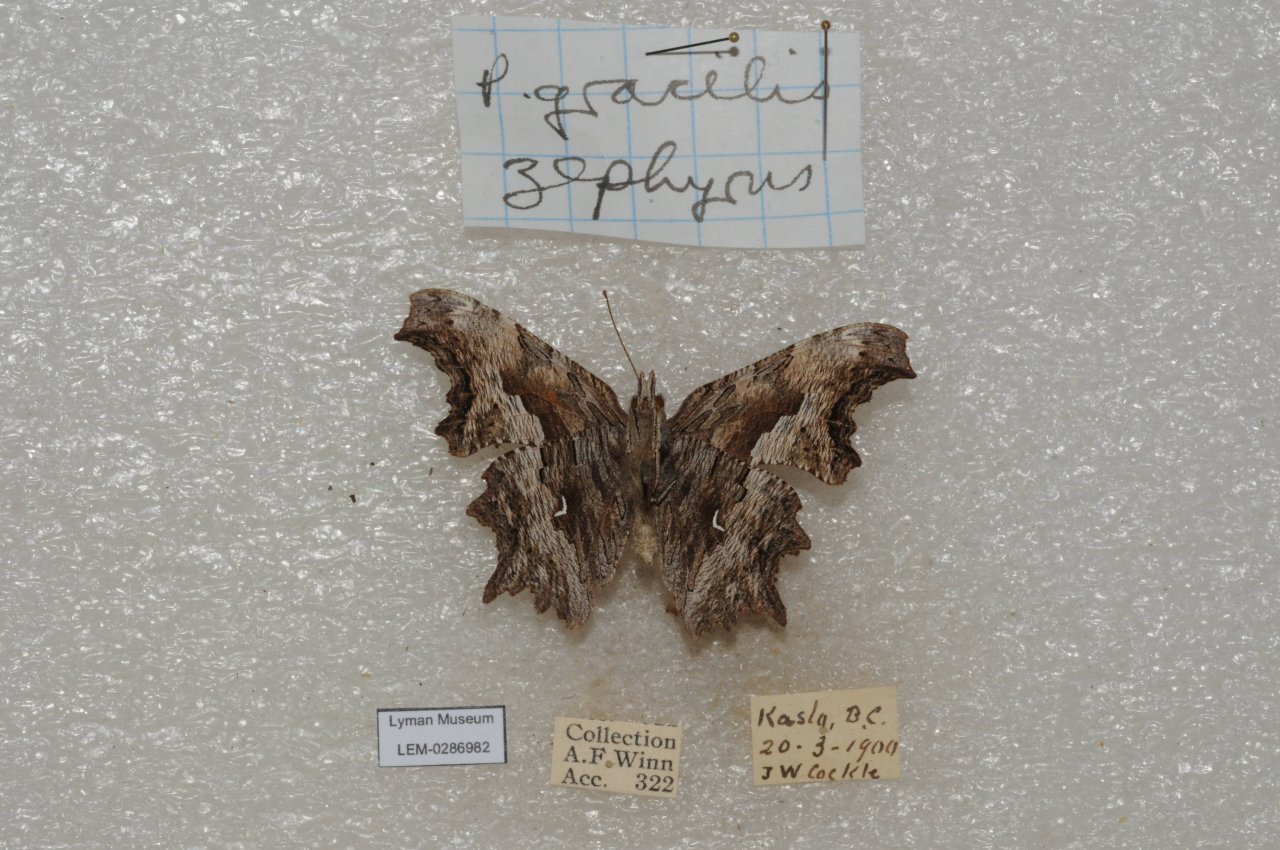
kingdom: Animalia
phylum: Arthropoda
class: Insecta
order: Lepidoptera
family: Nymphalidae
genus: Polygonia
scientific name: Polygonia gracilis
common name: Hoary Comma
